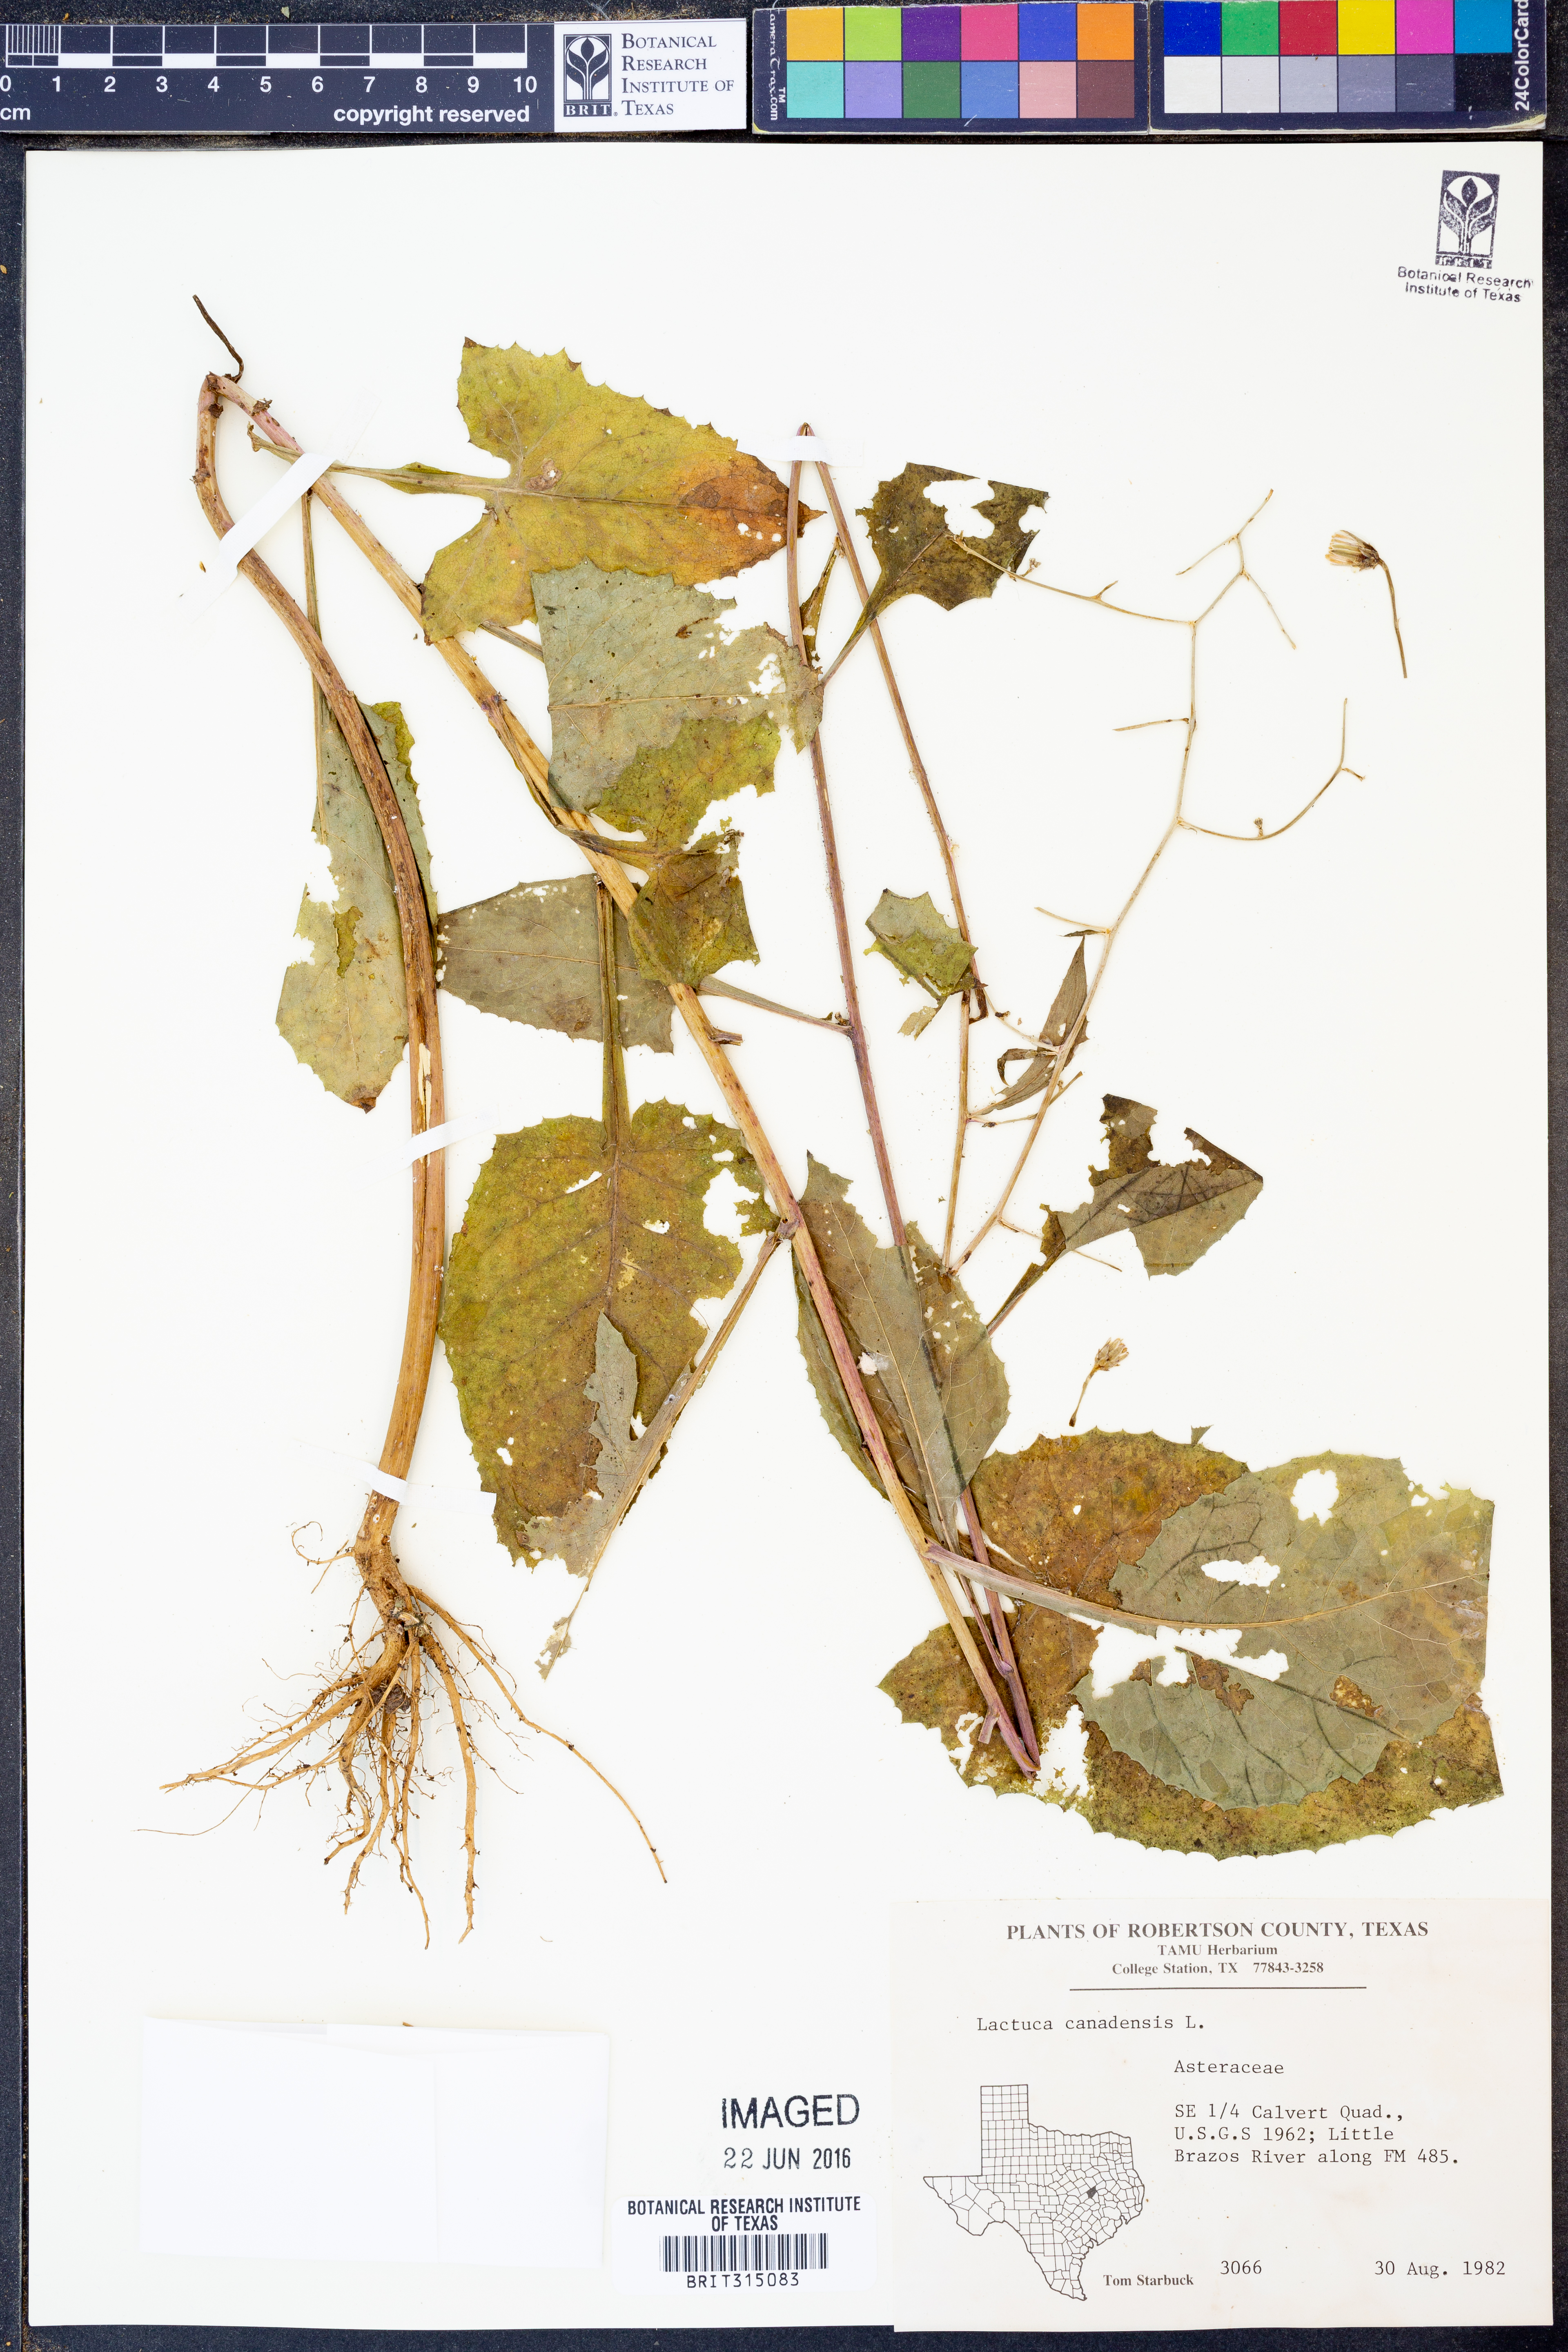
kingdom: Plantae
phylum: Tracheophyta
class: Magnoliopsida
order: Asterales
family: Asteraceae
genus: Lactuca
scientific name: Lactuca canadensis
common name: Canada lettuce
